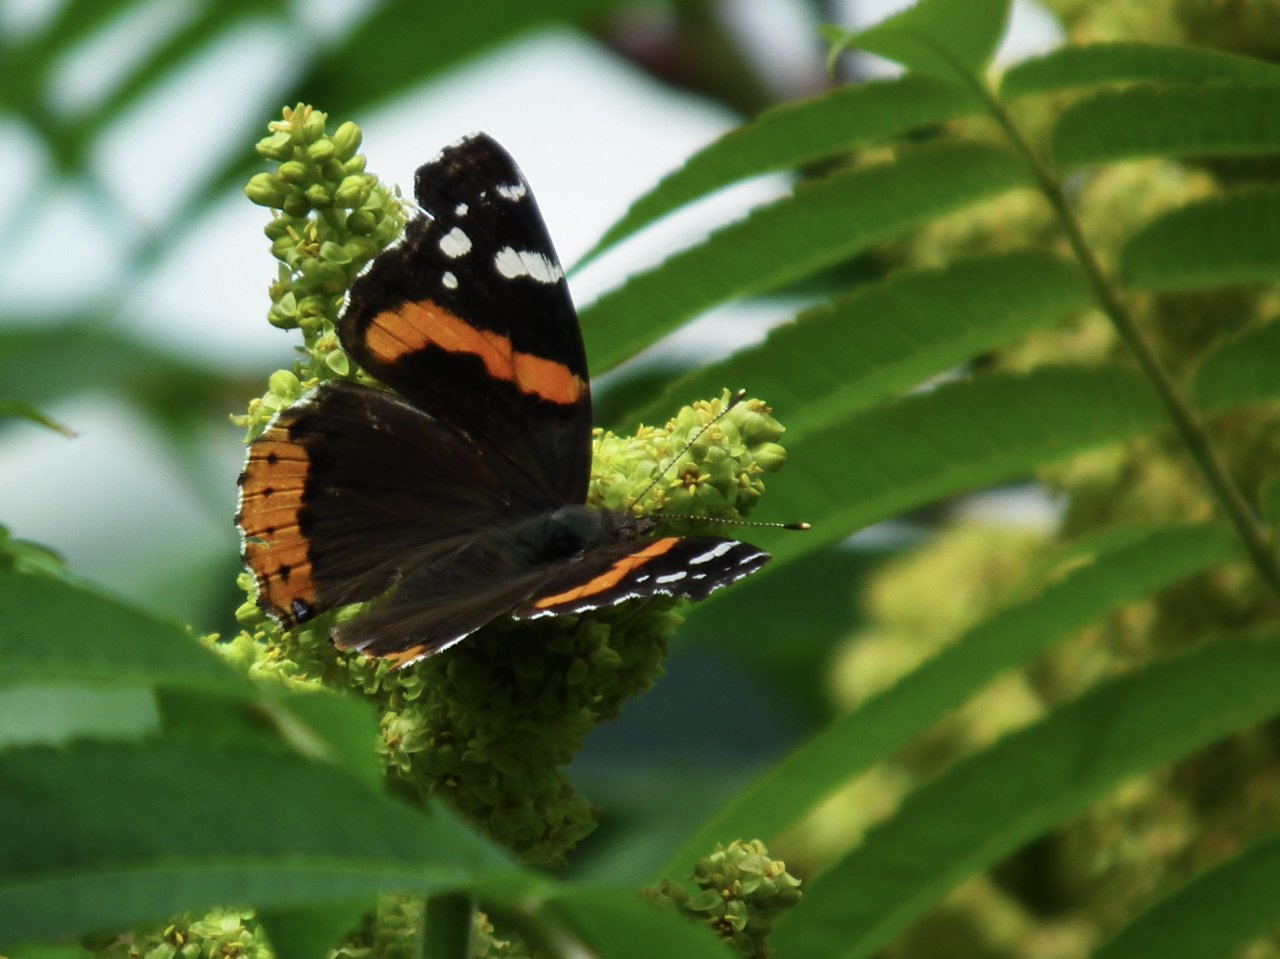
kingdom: Animalia
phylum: Arthropoda
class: Insecta
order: Lepidoptera
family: Nymphalidae
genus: Vanessa
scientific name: Vanessa atalanta
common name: Red Admiral
